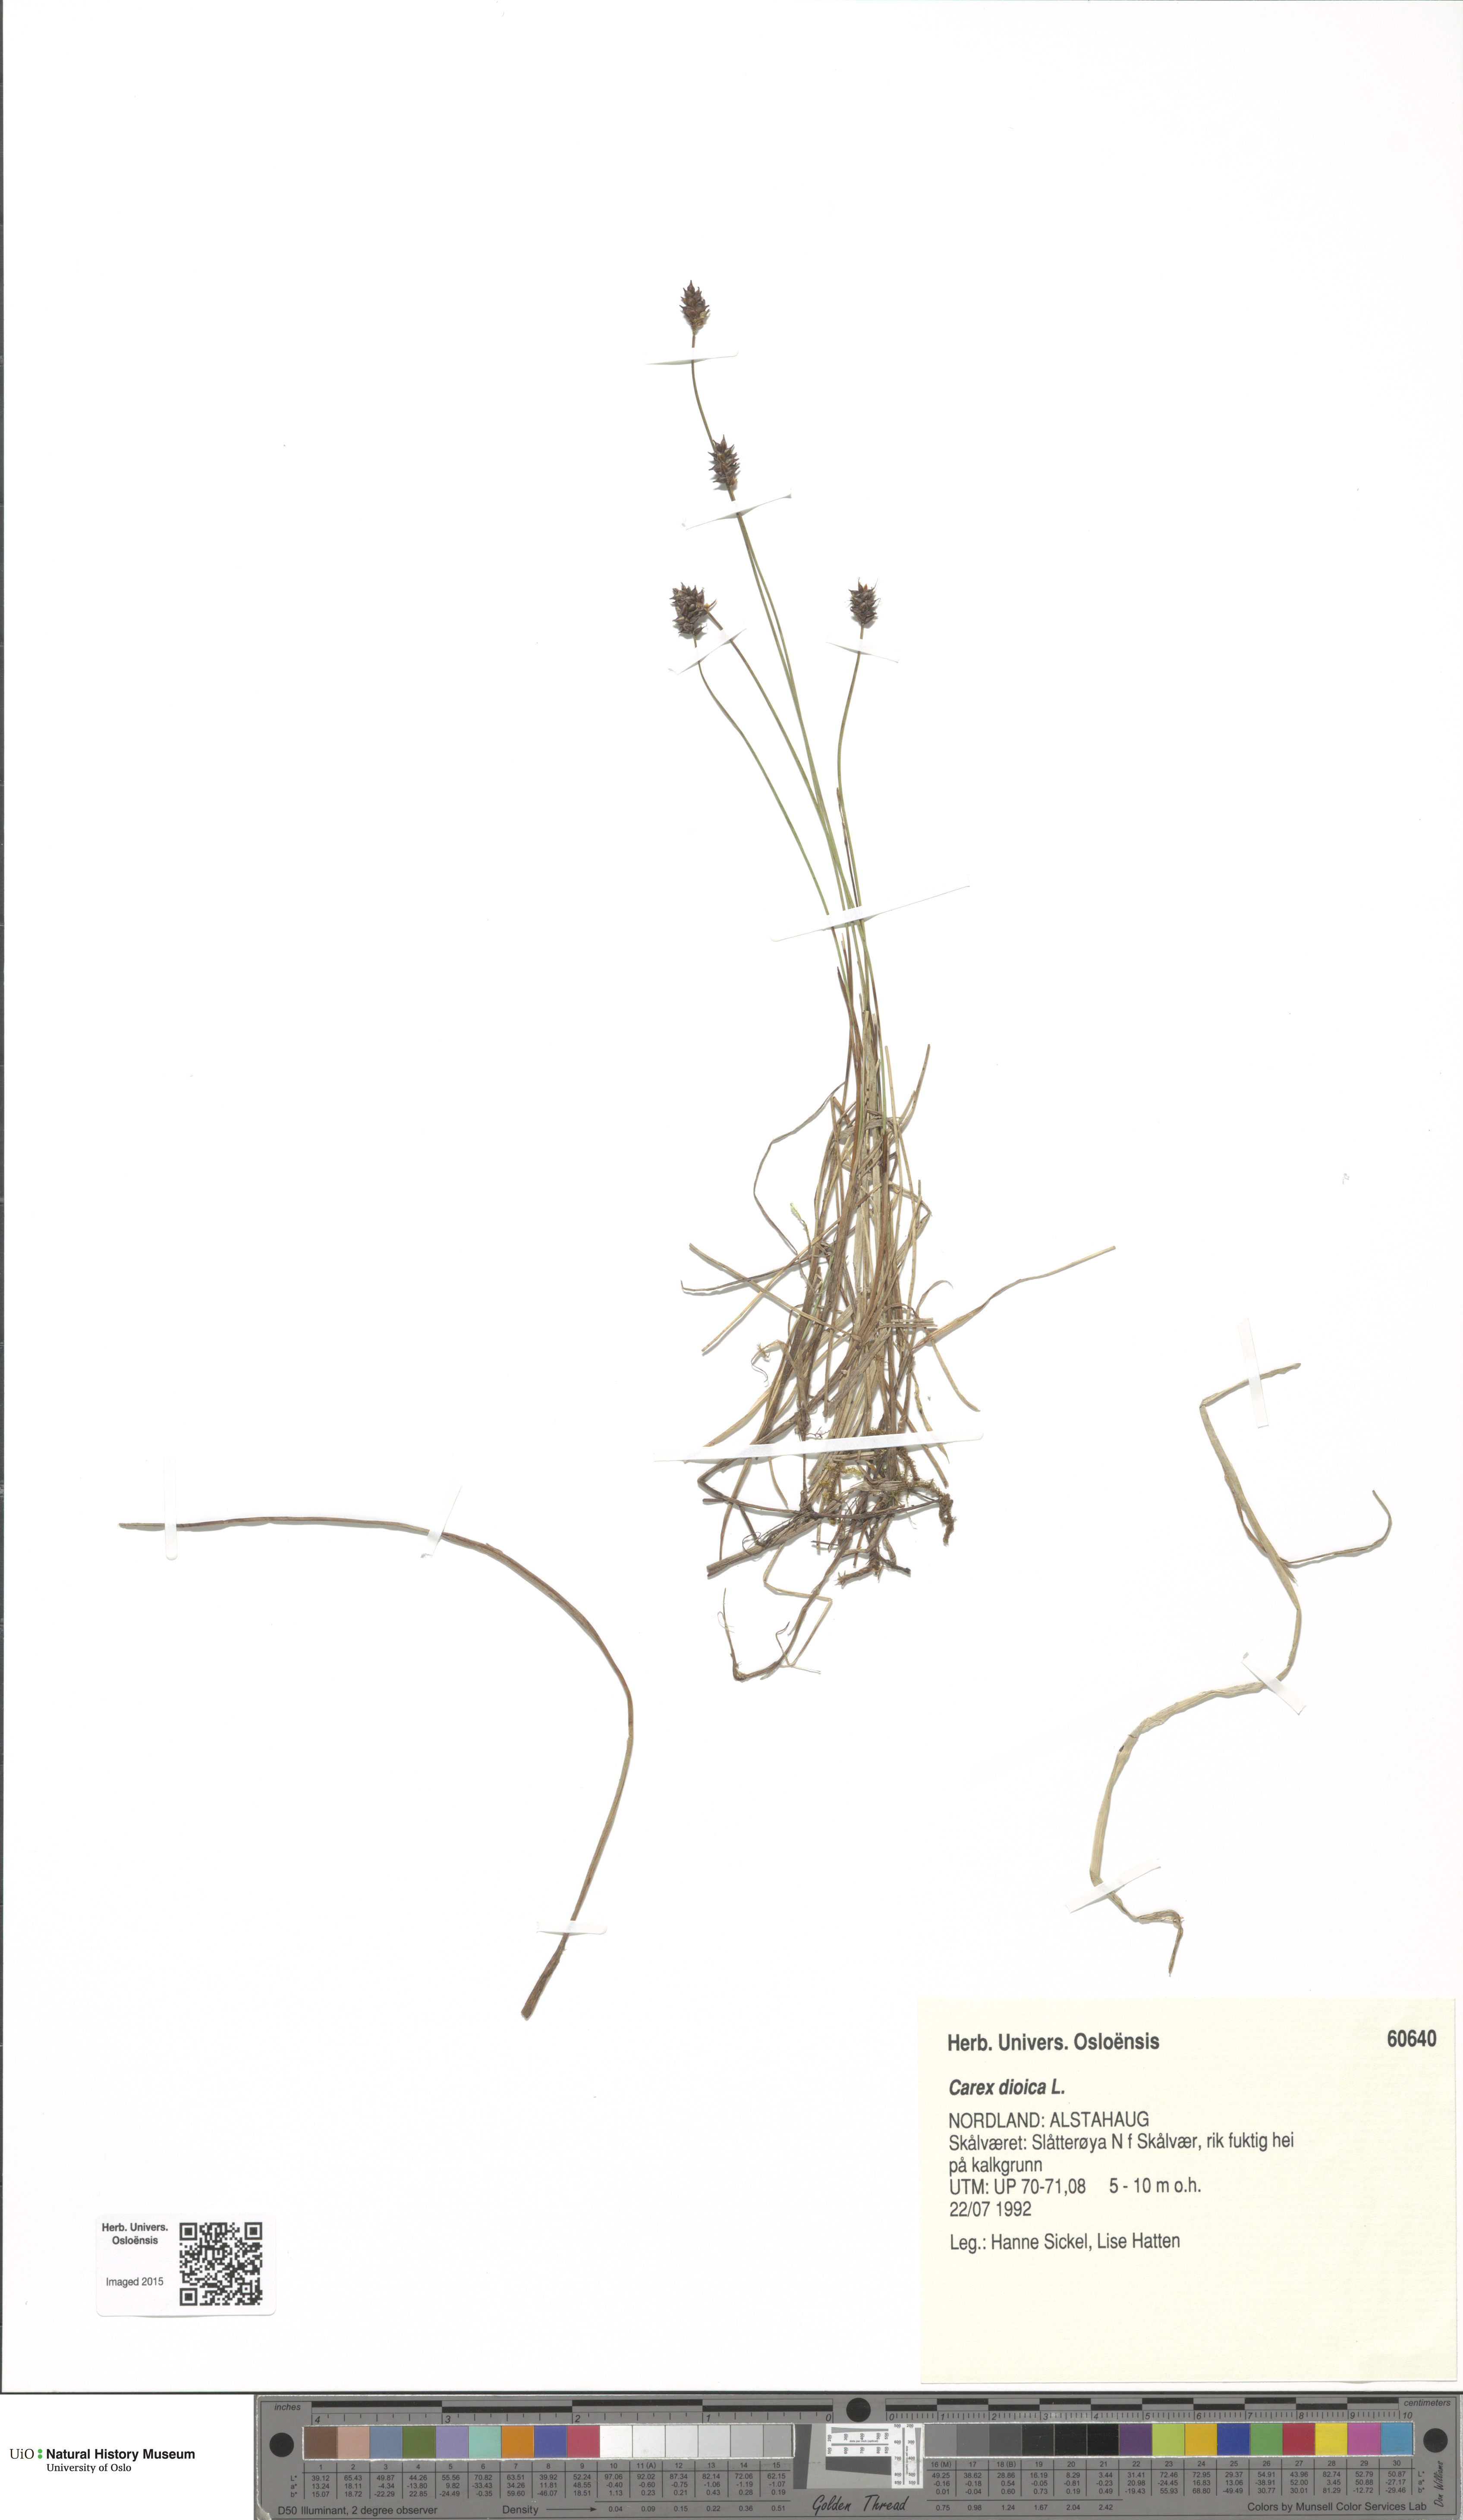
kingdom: Plantae
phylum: Tracheophyta
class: Liliopsida
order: Poales
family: Cyperaceae
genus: Carex
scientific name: Carex dioica
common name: Dioecious sedge
